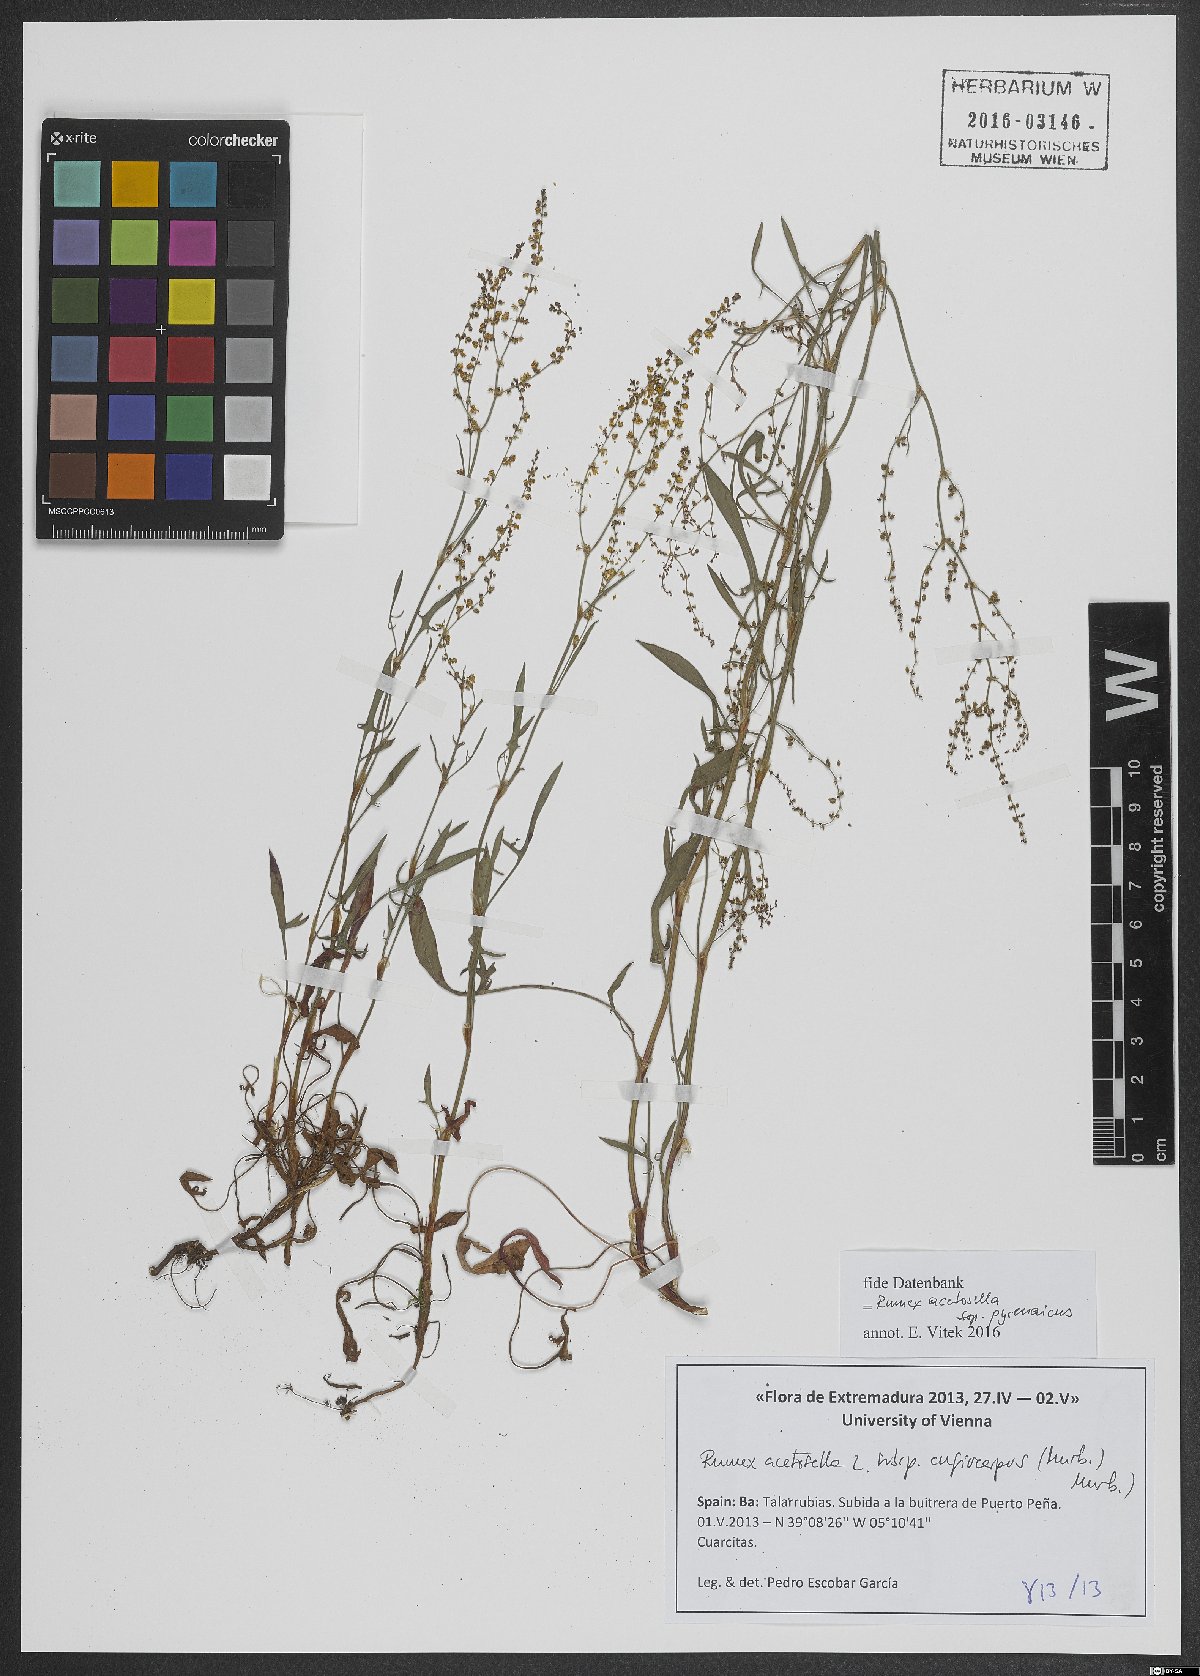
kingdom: Plantae
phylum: Tracheophyta
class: Magnoliopsida
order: Caryophyllales
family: Polygonaceae
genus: Rumex
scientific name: Rumex acetosella
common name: Common sheep sorrel
